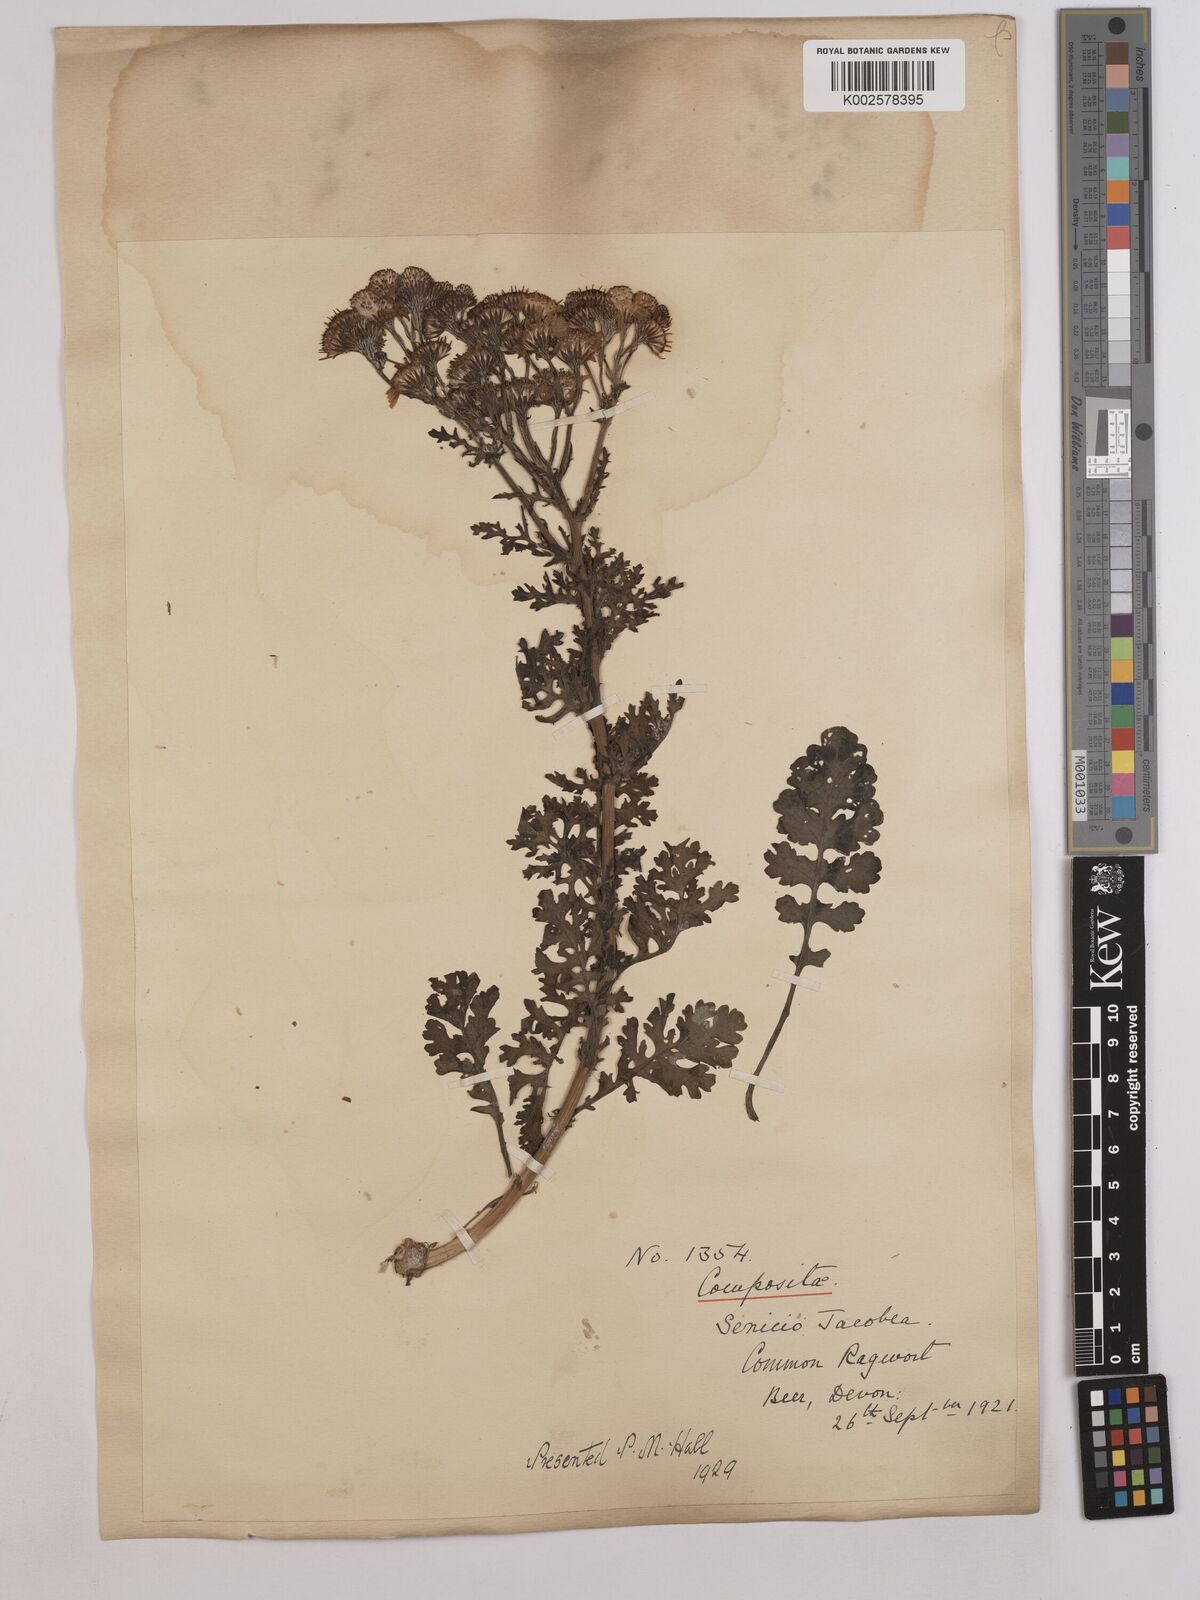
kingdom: Plantae
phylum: Tracheophyta
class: Magnoliopsida
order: Asterales
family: Asteraceae
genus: Jacobaea
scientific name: Jacobaea vulgaris
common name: Stinking willie
